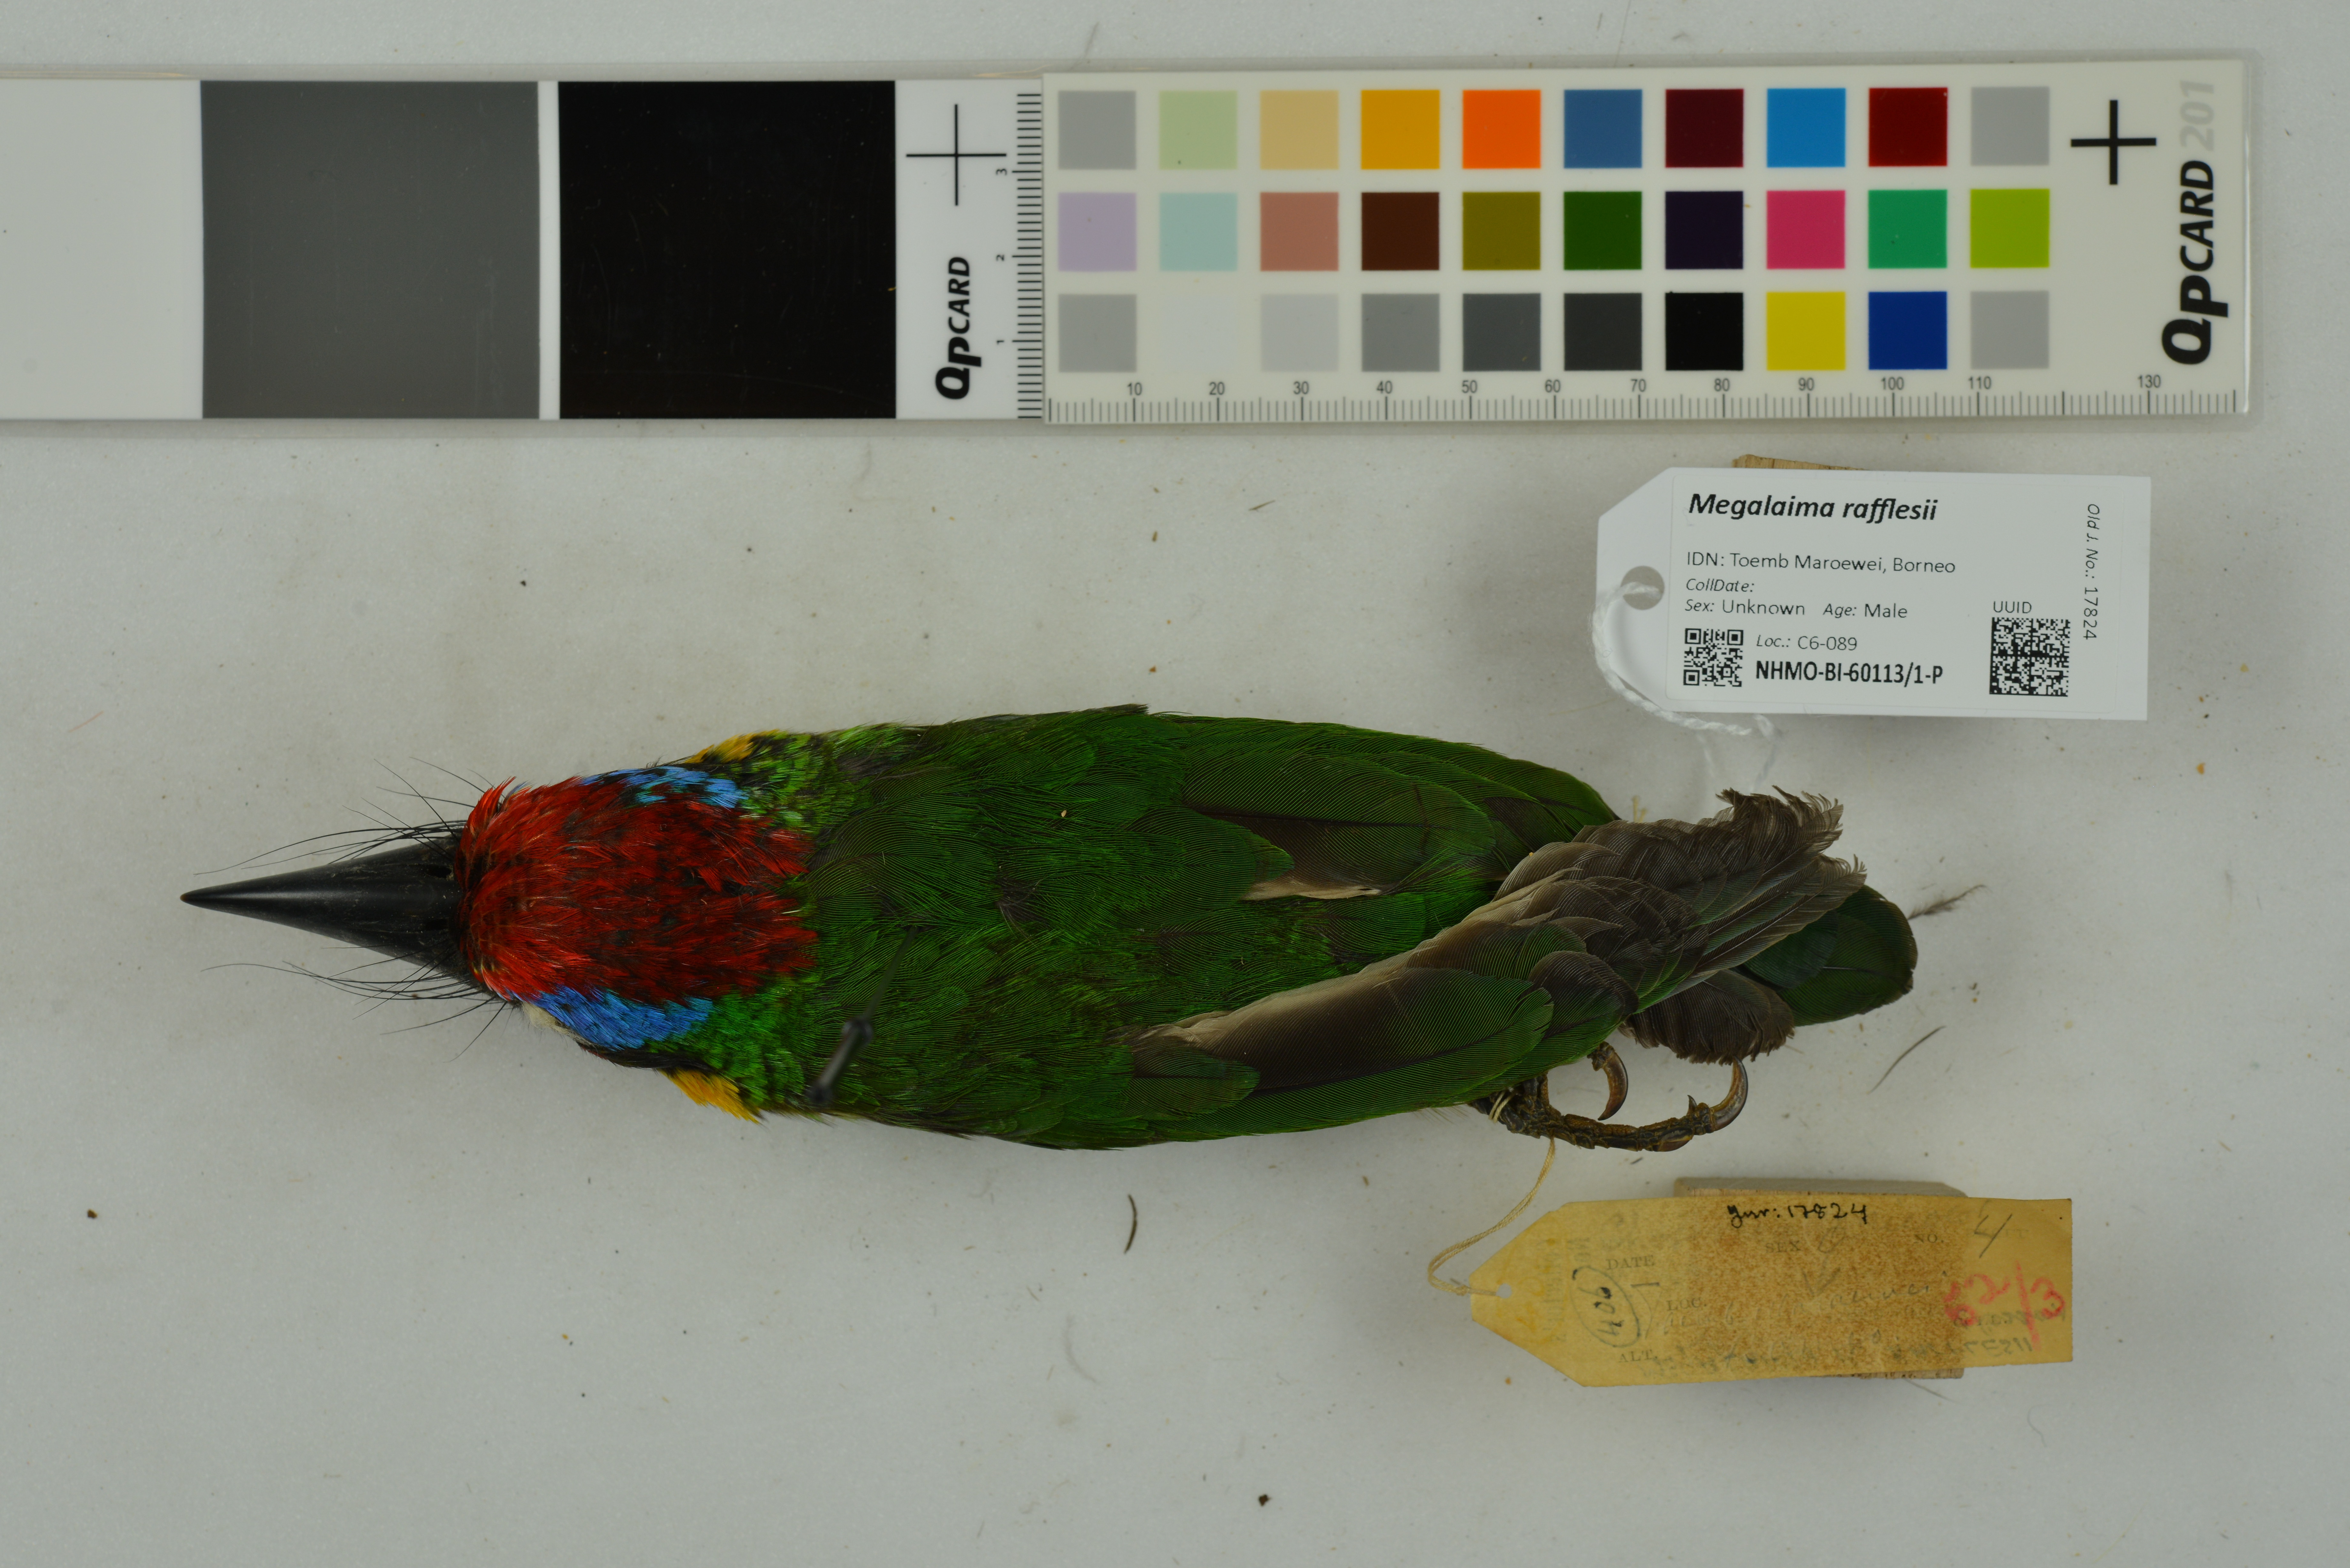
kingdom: Animalia
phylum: Chordata
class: Aves
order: Piciformes
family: Megalaimidae
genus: Psilopogon
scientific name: Psilopogon rafflesii
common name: Red-crowned barbet
